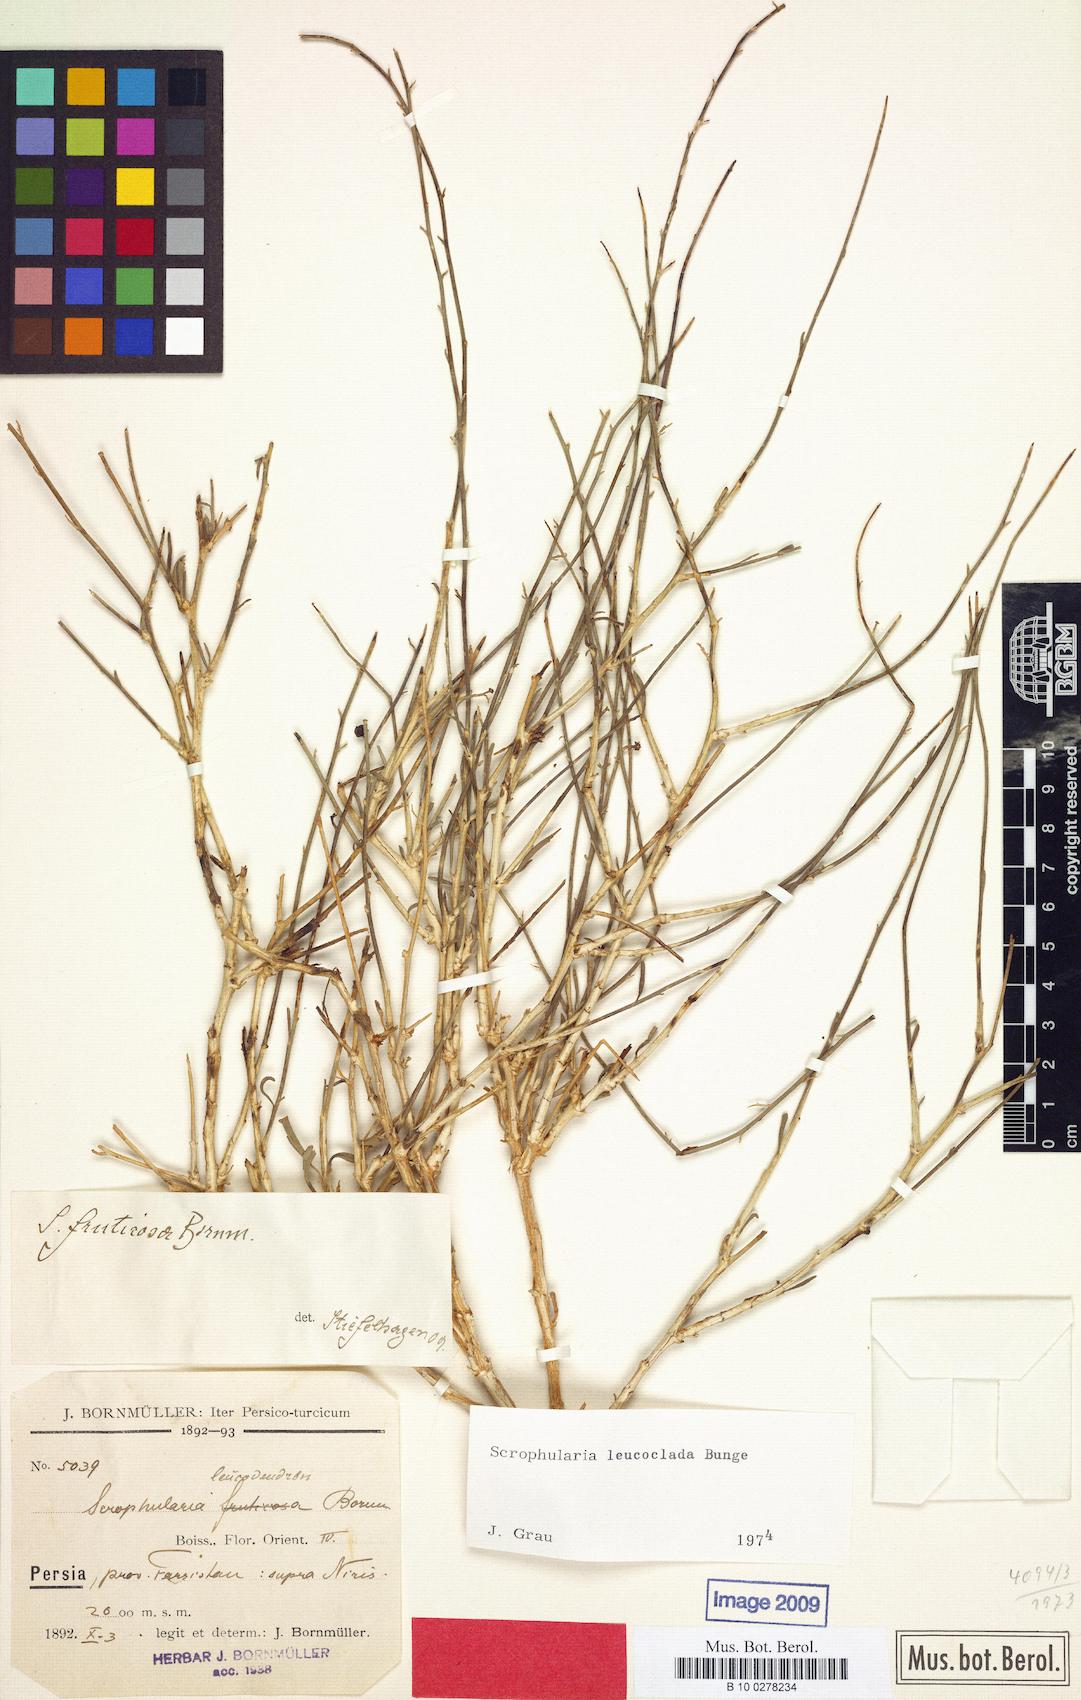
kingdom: Plantae
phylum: Tracheophyta
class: Magnoliopsida
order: Lamiales
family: Scrophulariaceae
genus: Scrophularia
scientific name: Scrophularia leucoclada
